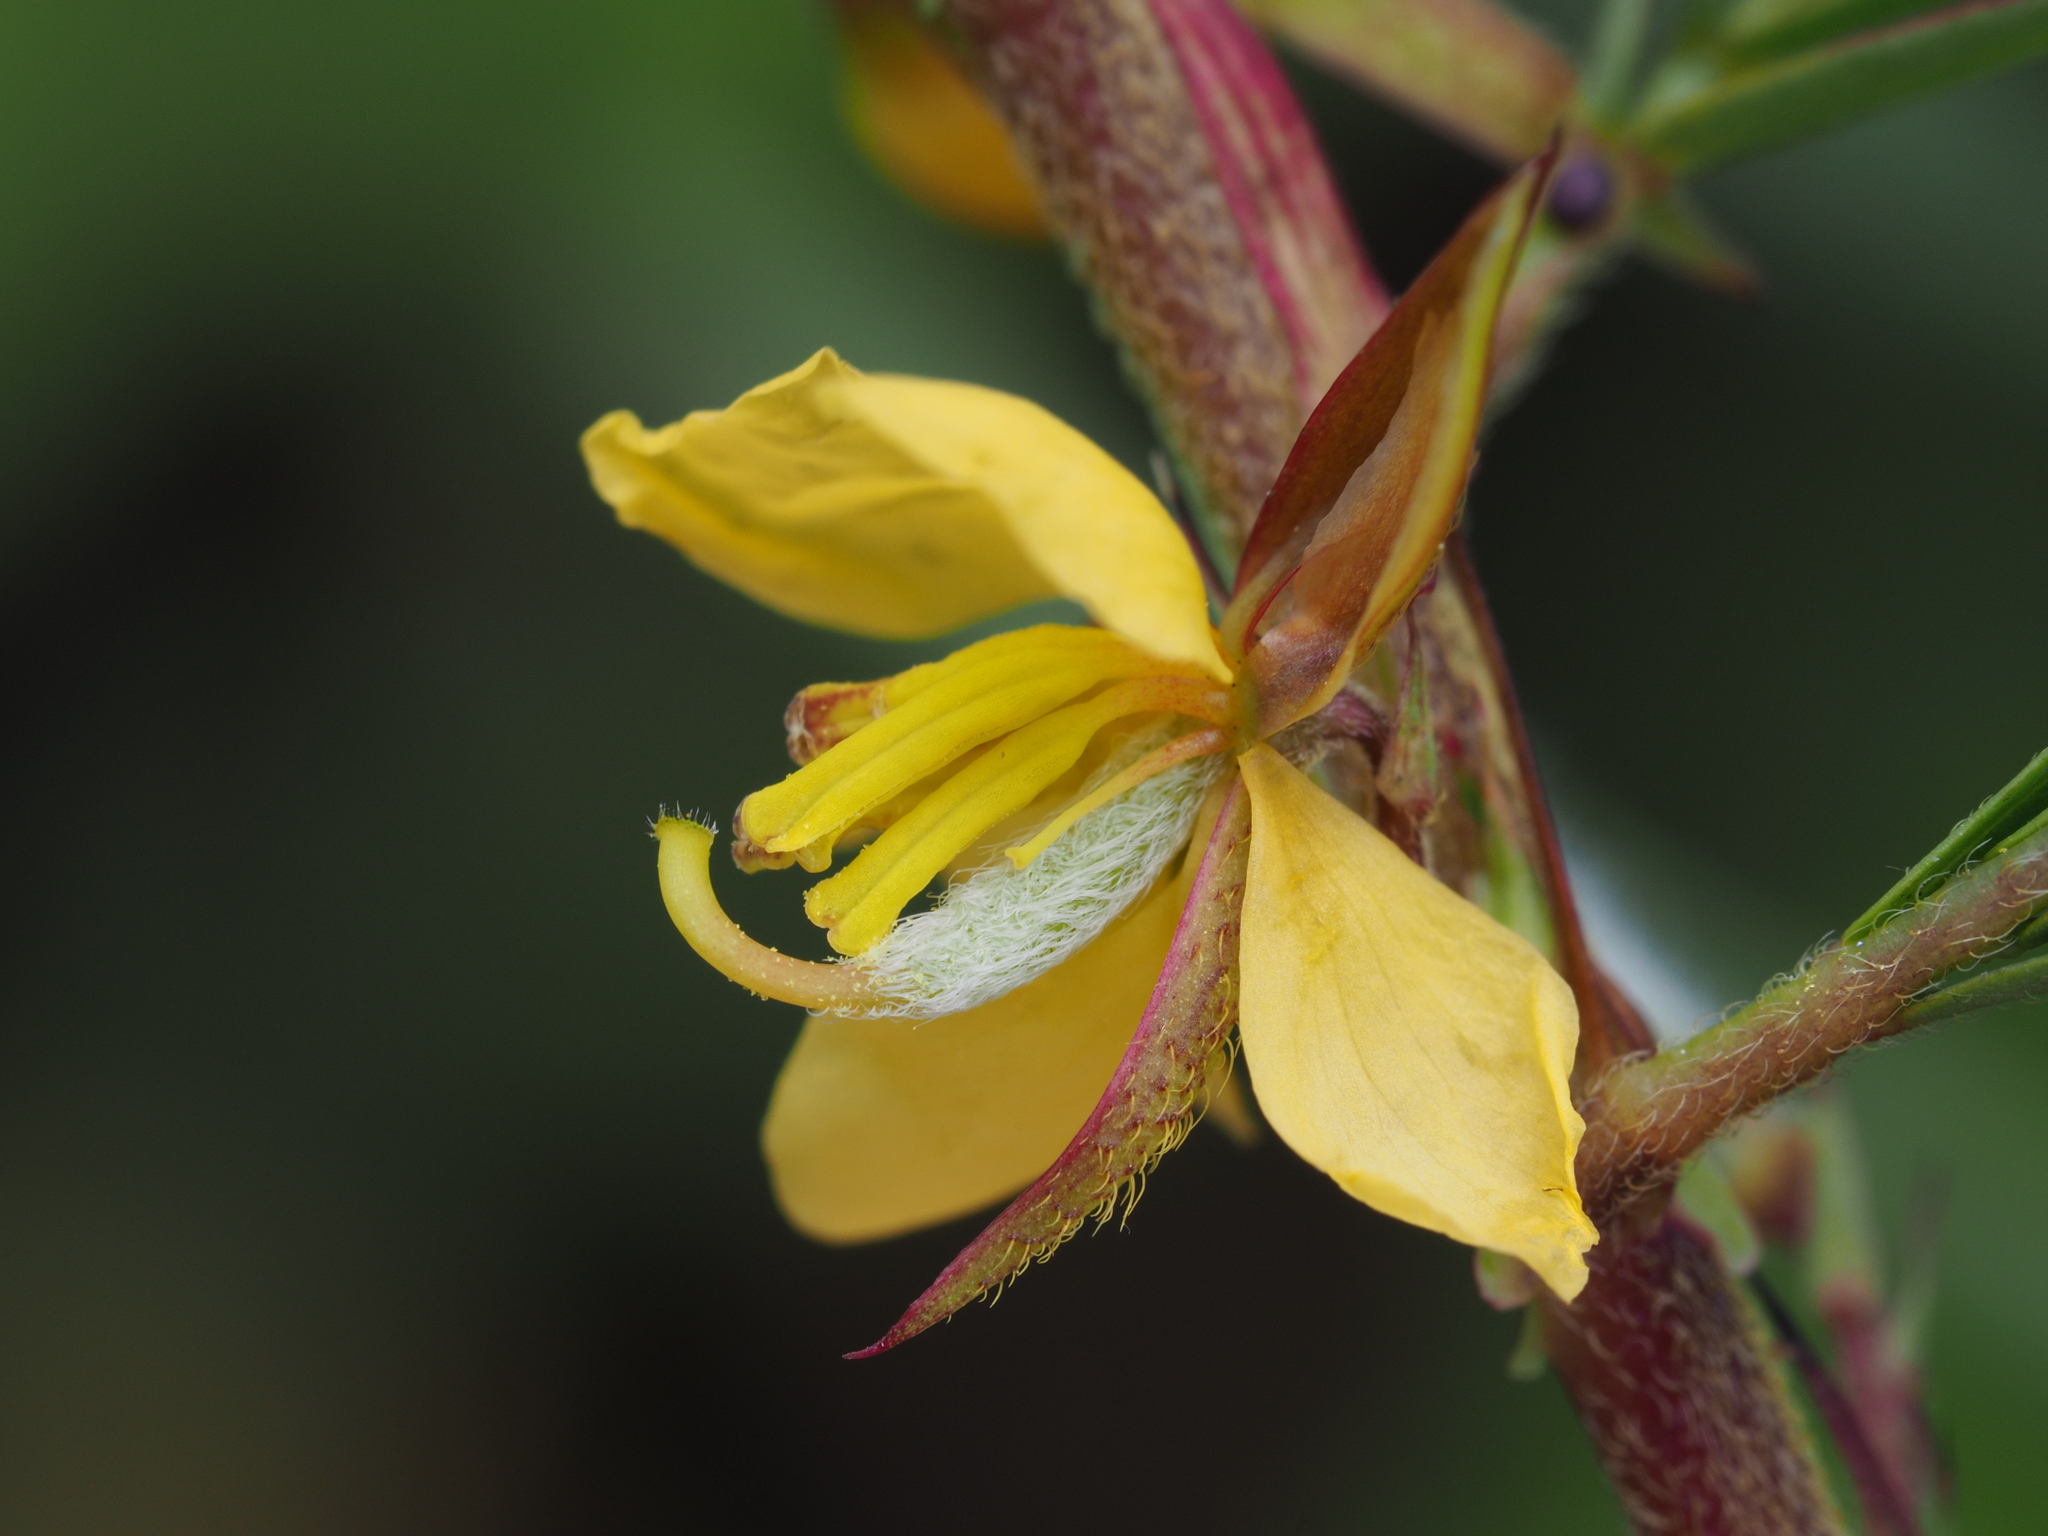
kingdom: Plantae
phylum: Tracheophyta
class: Magnoliopsida
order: Fabales
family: Fabaceae
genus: Chamaecrista
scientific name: Chamaecrista nomame
